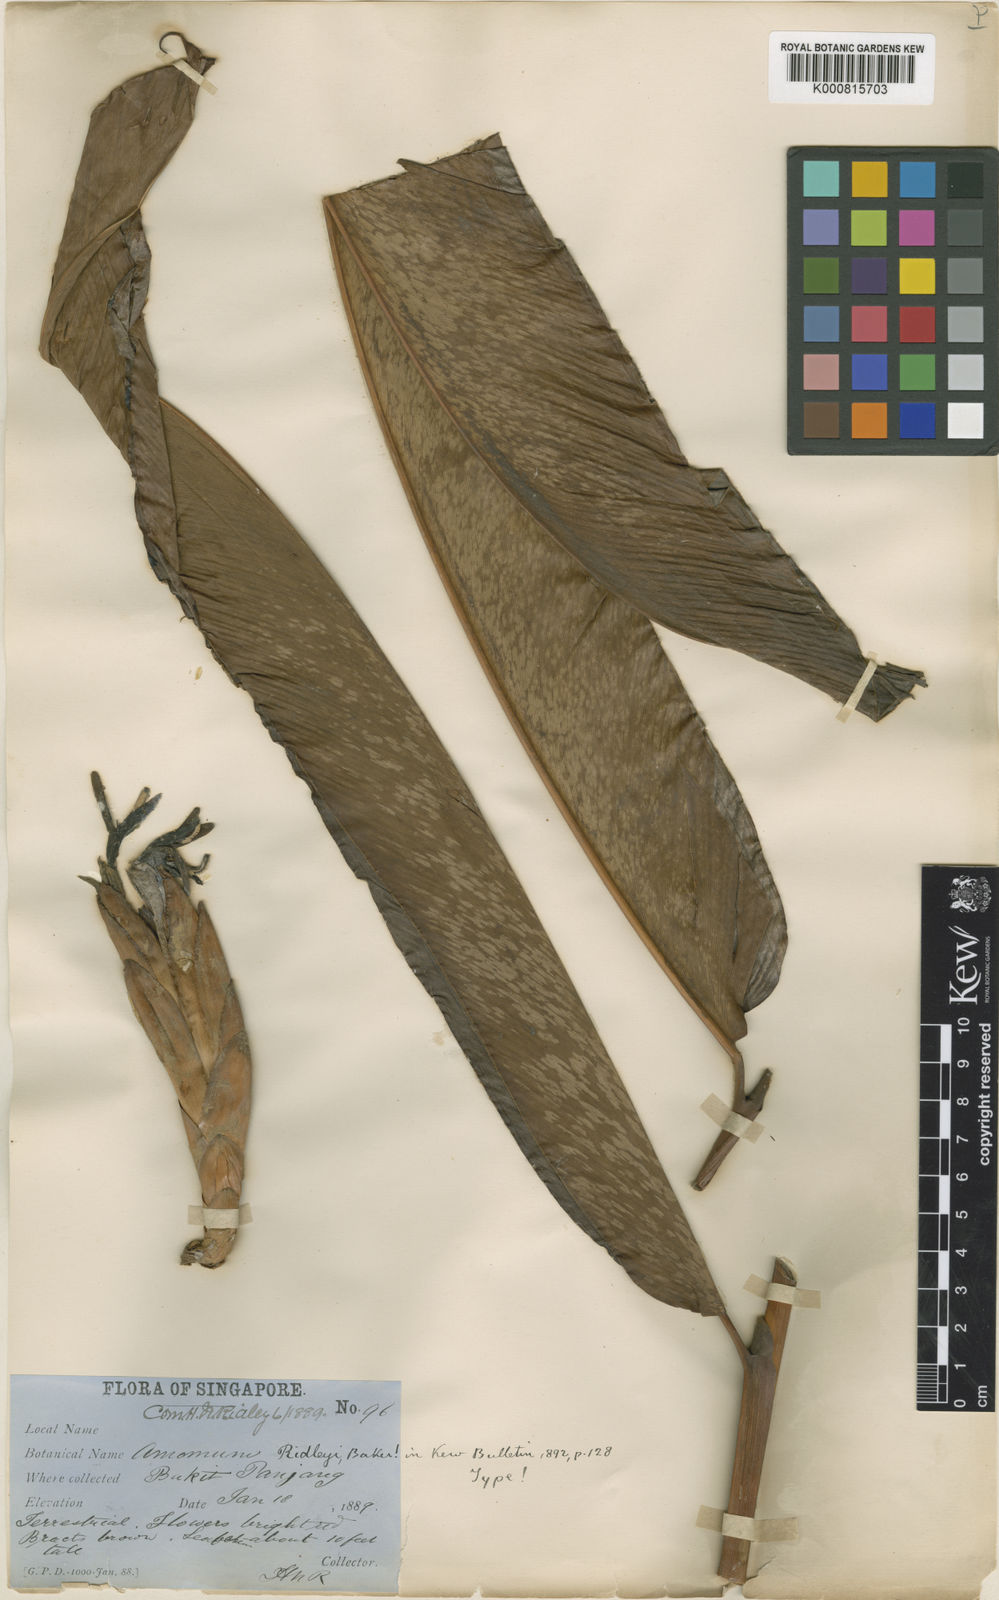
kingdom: Plantae
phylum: Tracheophyta
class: Liliopsida
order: Zingiberales
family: Zingiberaceae
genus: Hornstedtia
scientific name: Hornstedtia leonurus
